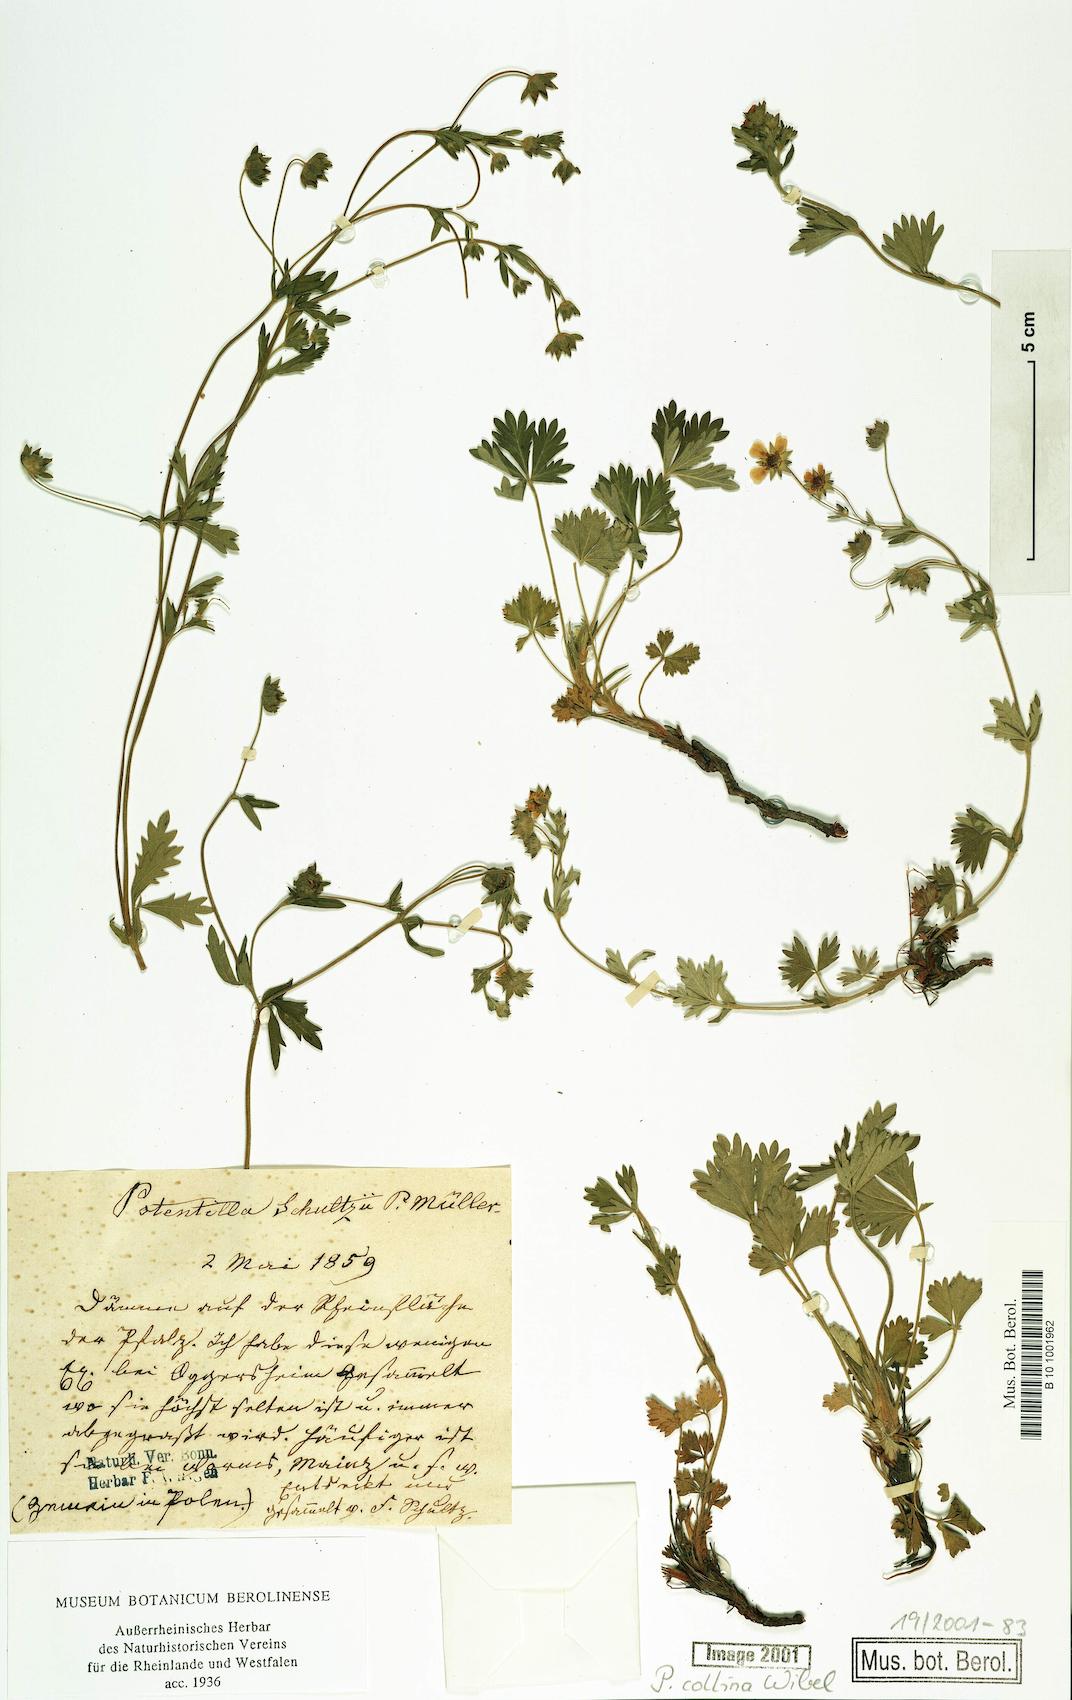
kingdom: Plantae
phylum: Tracheophyta
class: Magnoliopsida
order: Rosales
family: Rosaceae
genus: Potentilla
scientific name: Potentilla schultzii
